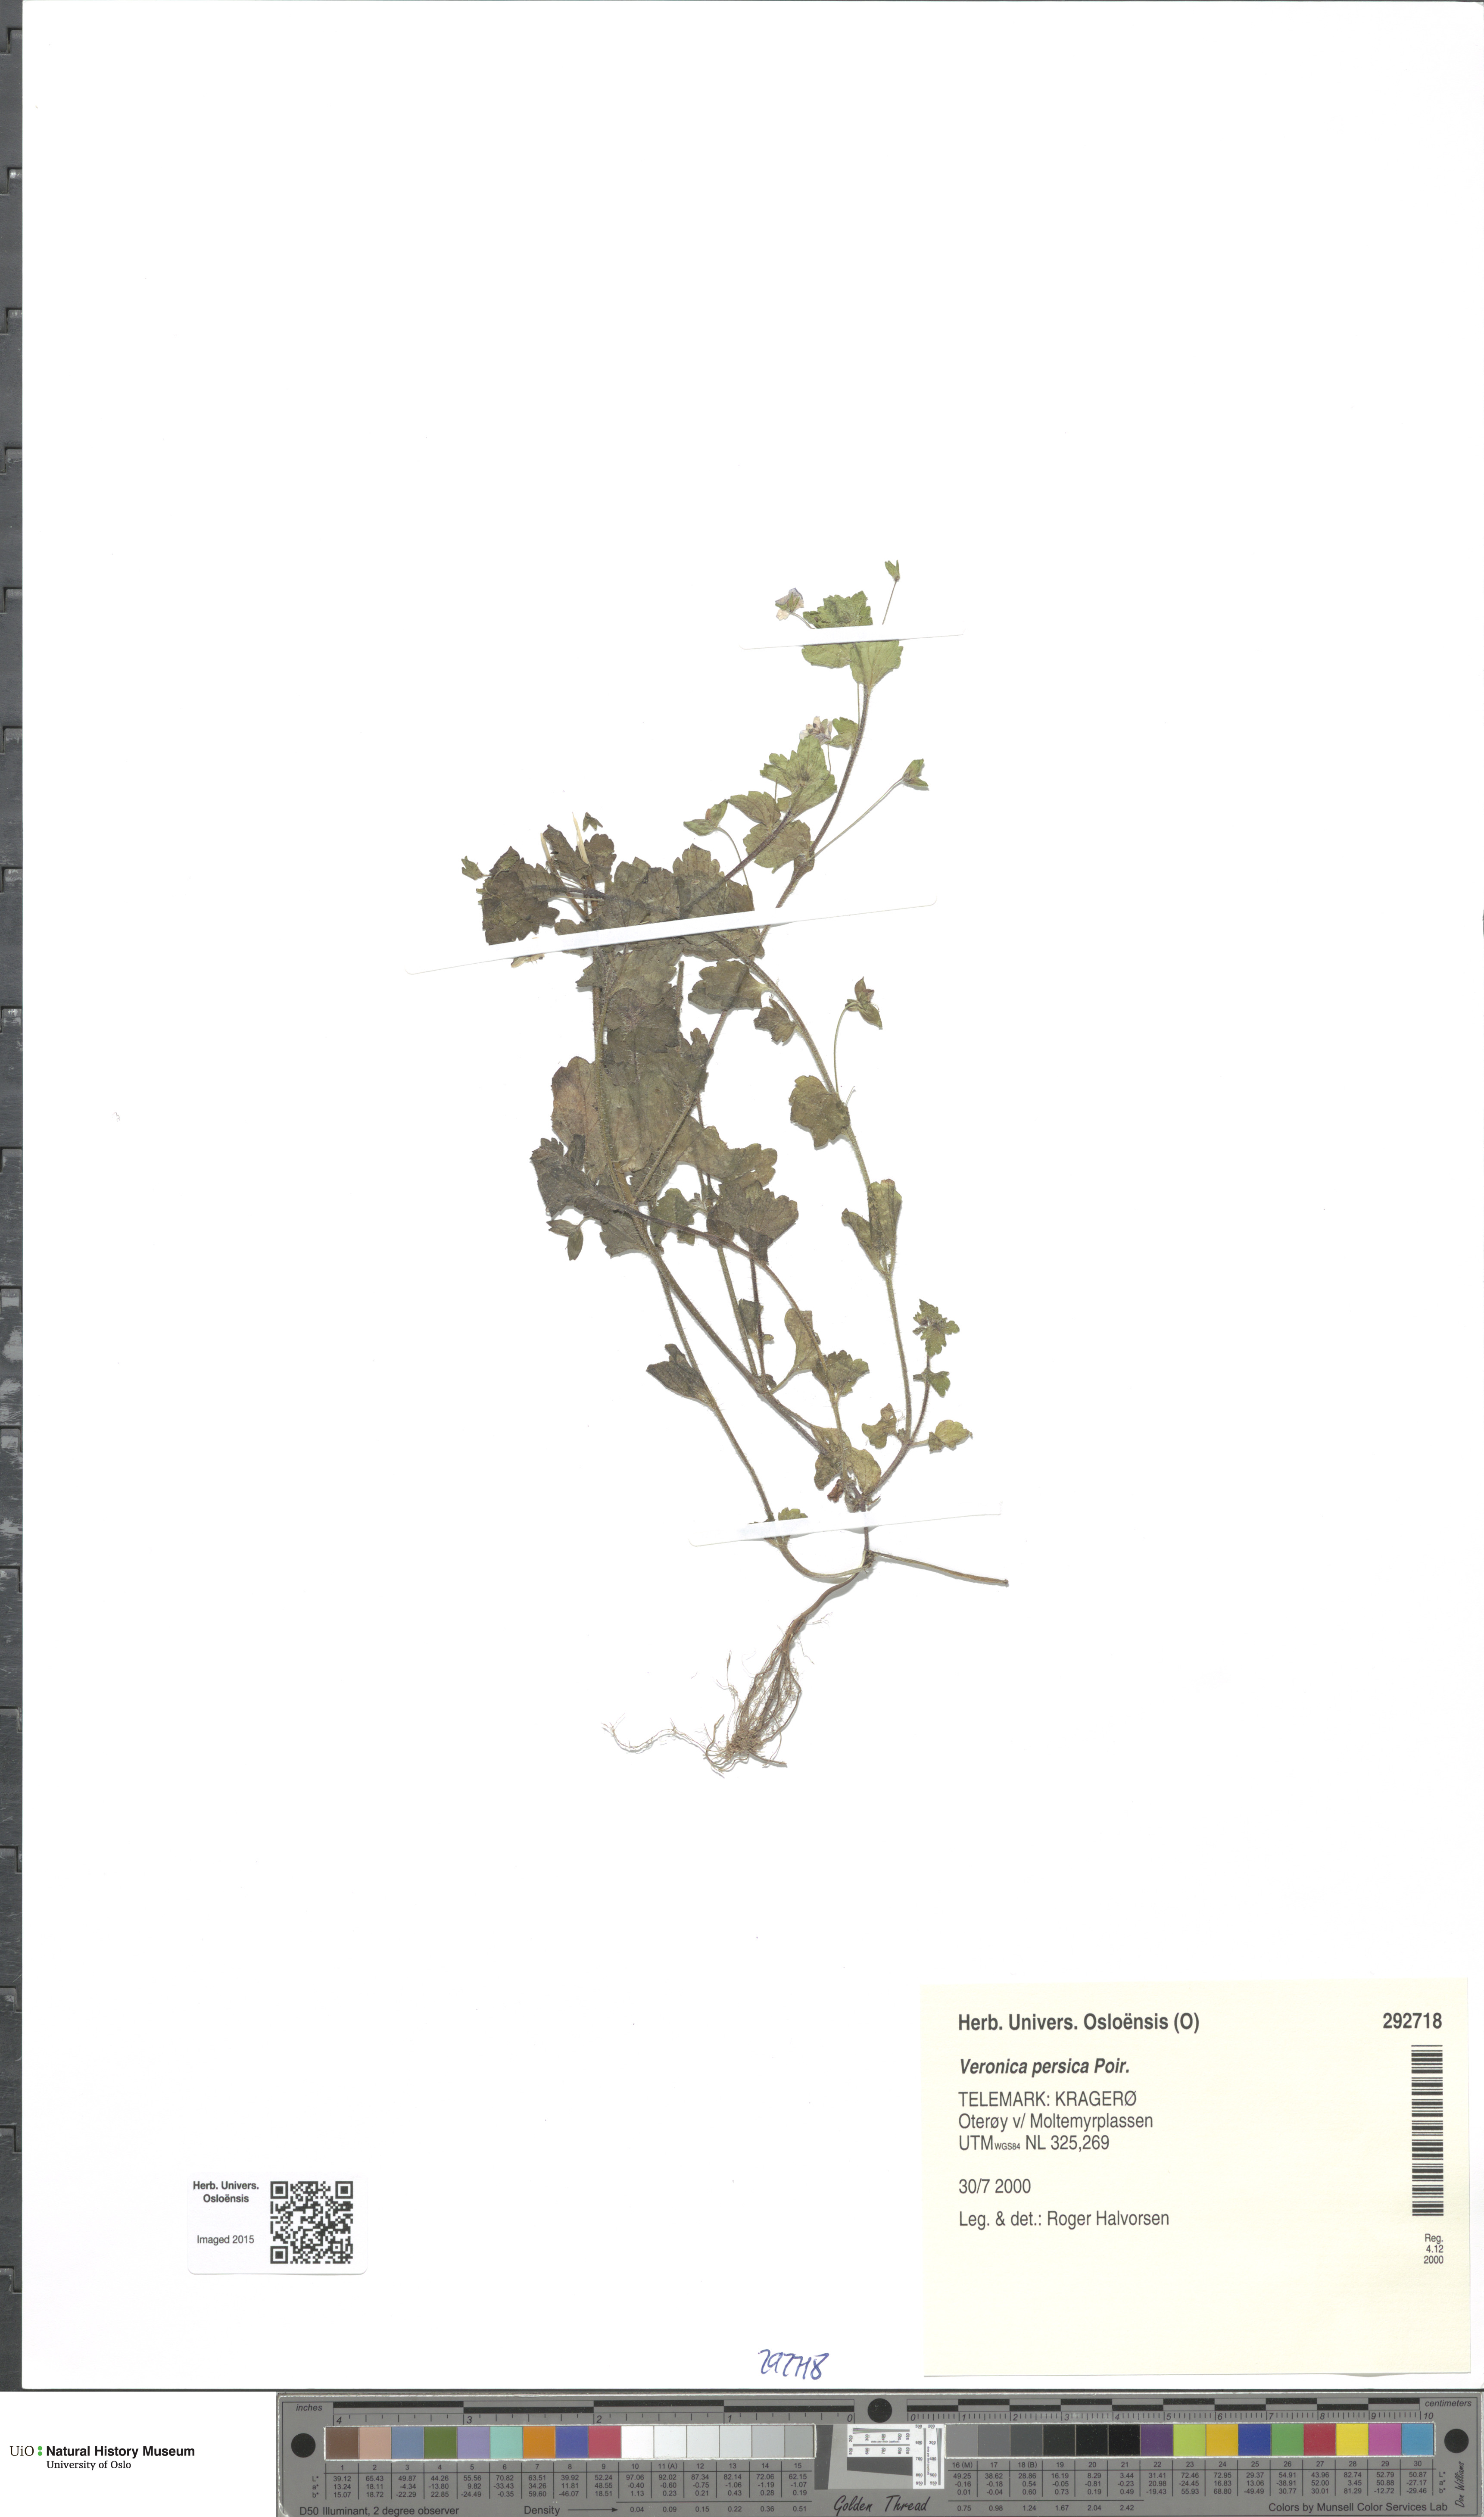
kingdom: Plantae
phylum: Tracheophyta
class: Magnoliopsida
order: Lamiales
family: Plantaginaceae
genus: Veronica
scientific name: Veronica persica
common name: Common field-speedwell
